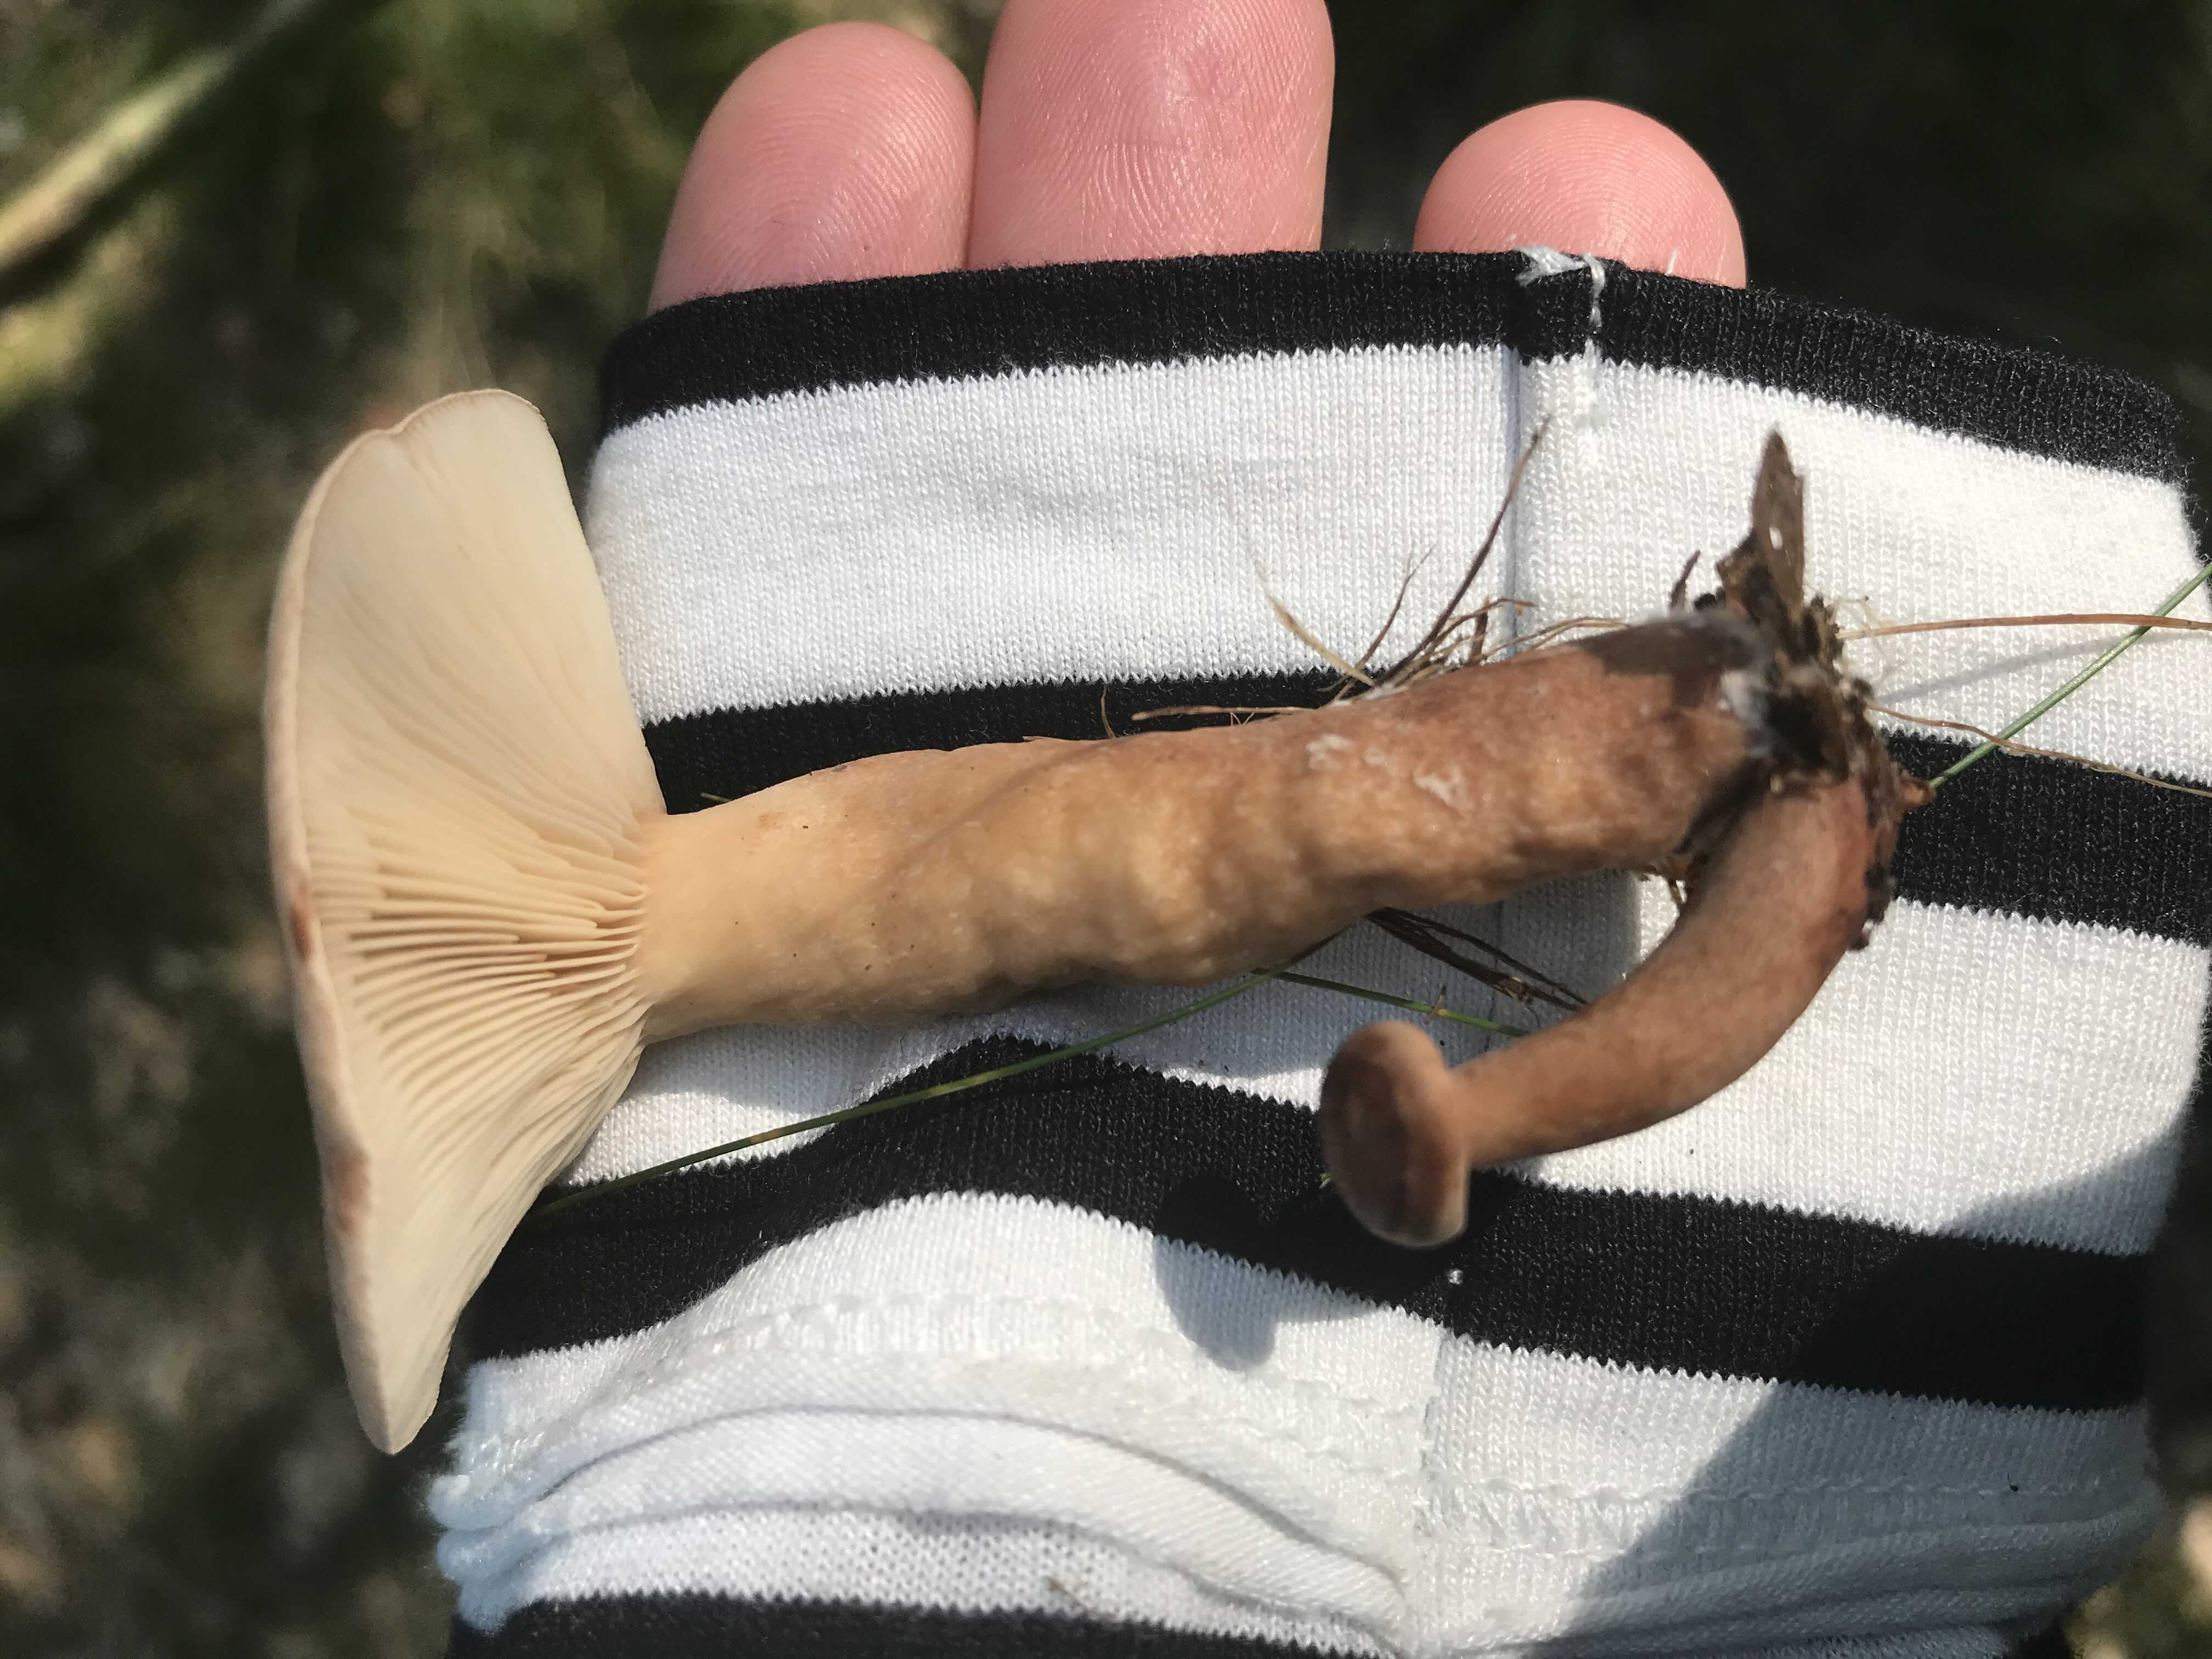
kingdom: Fungi
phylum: Basidiomycota
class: Agaricomycetes
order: Russulales
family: Russulaceae
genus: Lactarius
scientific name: Lactarius
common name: mælkehat
